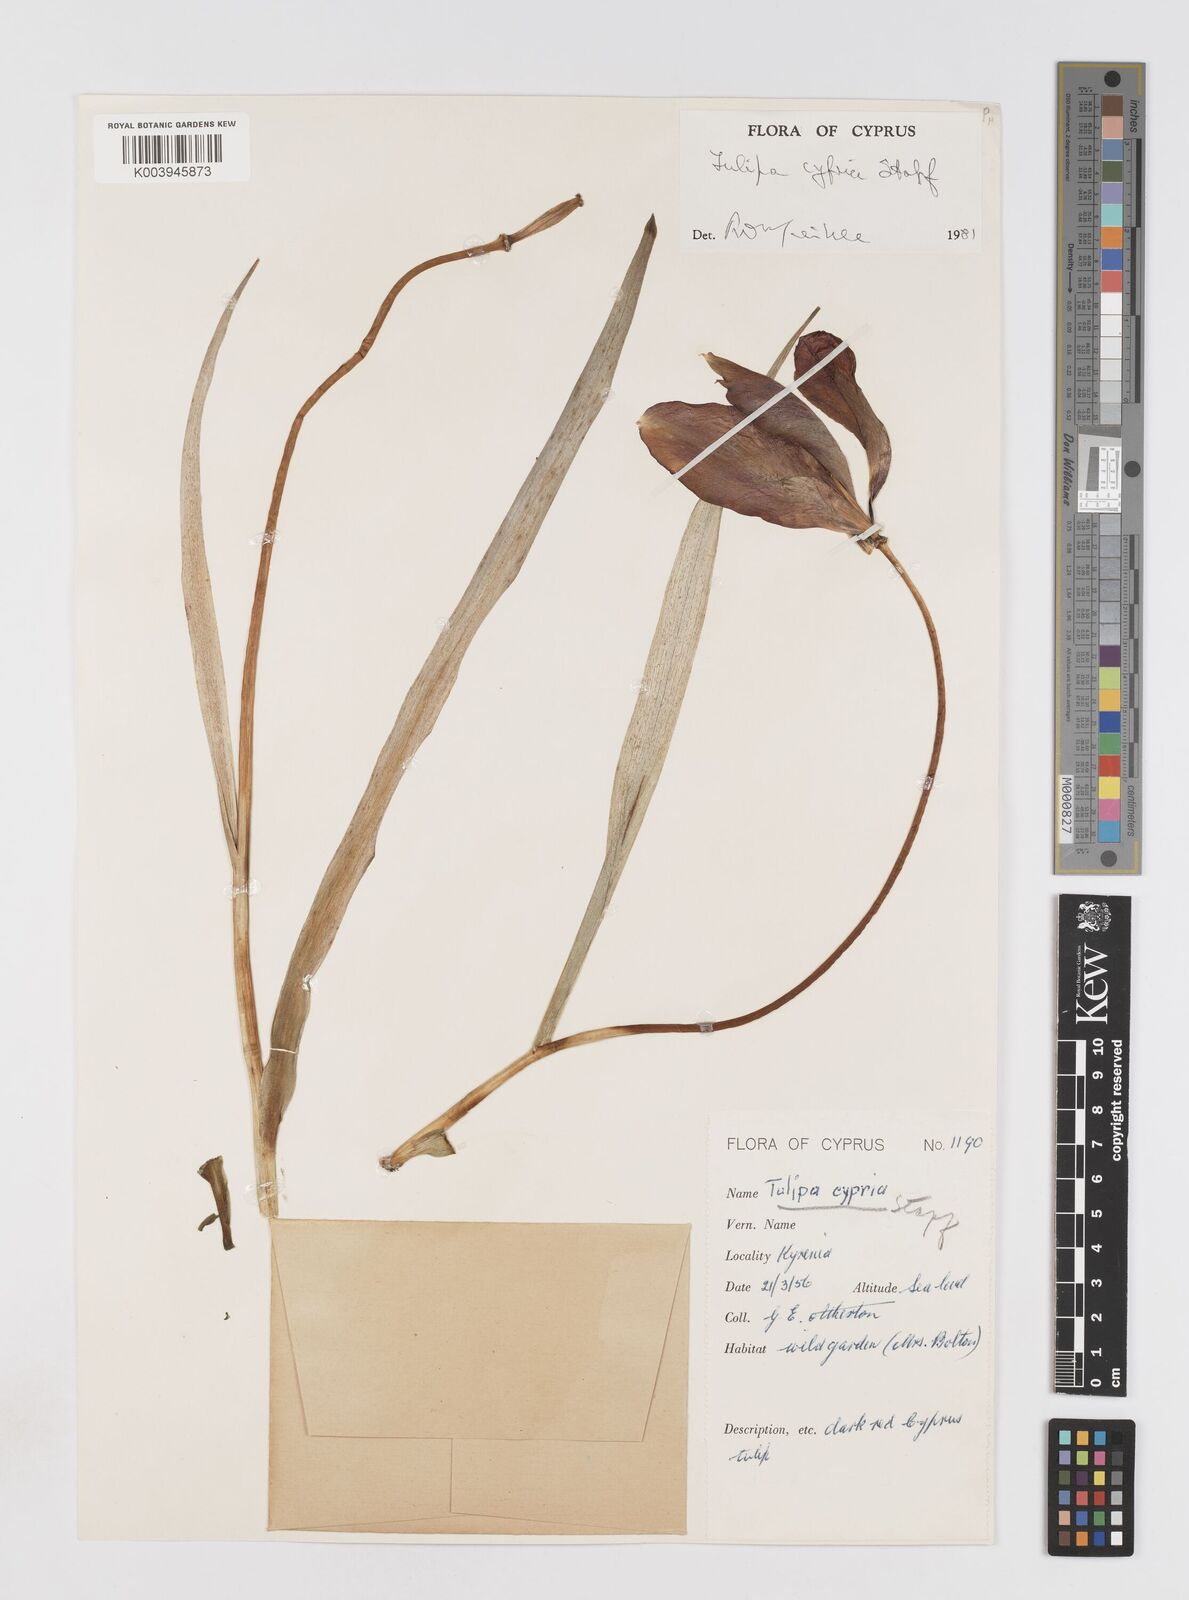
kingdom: Plantae
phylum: Tracheophyta
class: Liliopsida
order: Liliales
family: Liliaceae
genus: Tulipa
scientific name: Tulipa cypria
